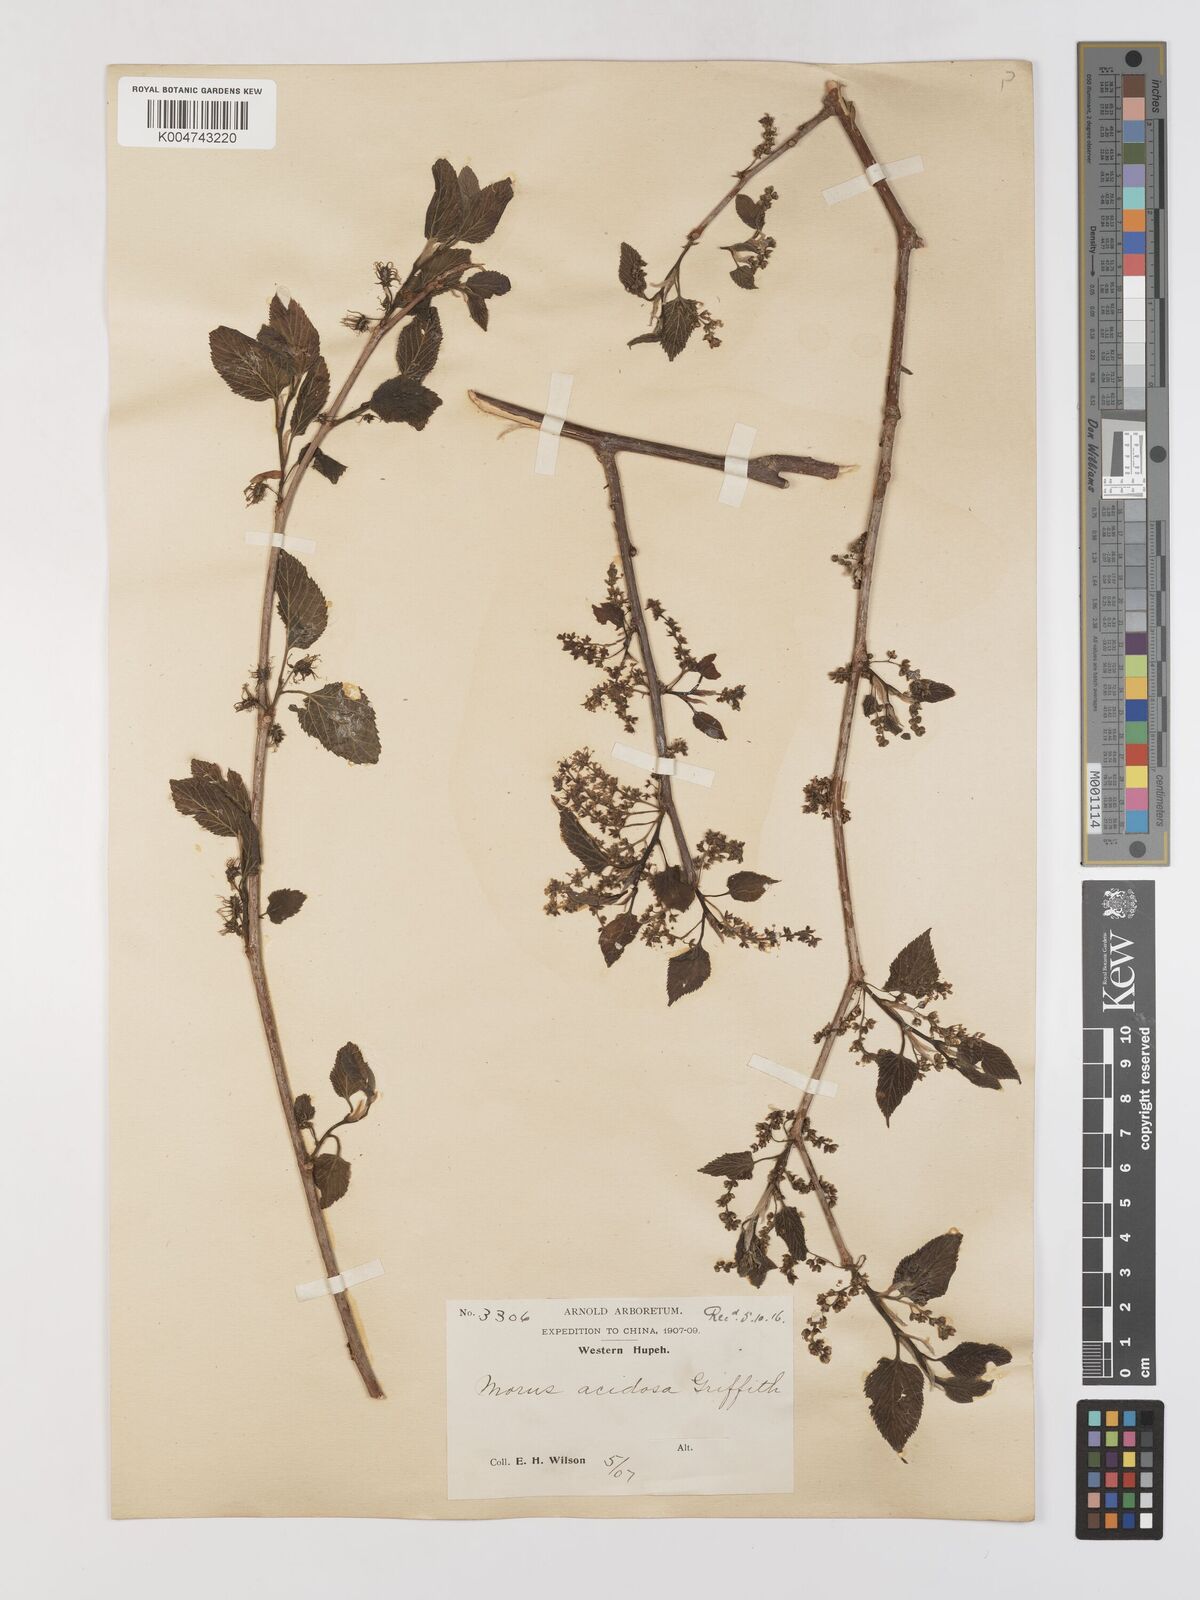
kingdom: Plantae
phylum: Tracheophyta
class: Magnoliopsida
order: Rosales
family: Moraceae
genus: Morus
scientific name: Morus indica
